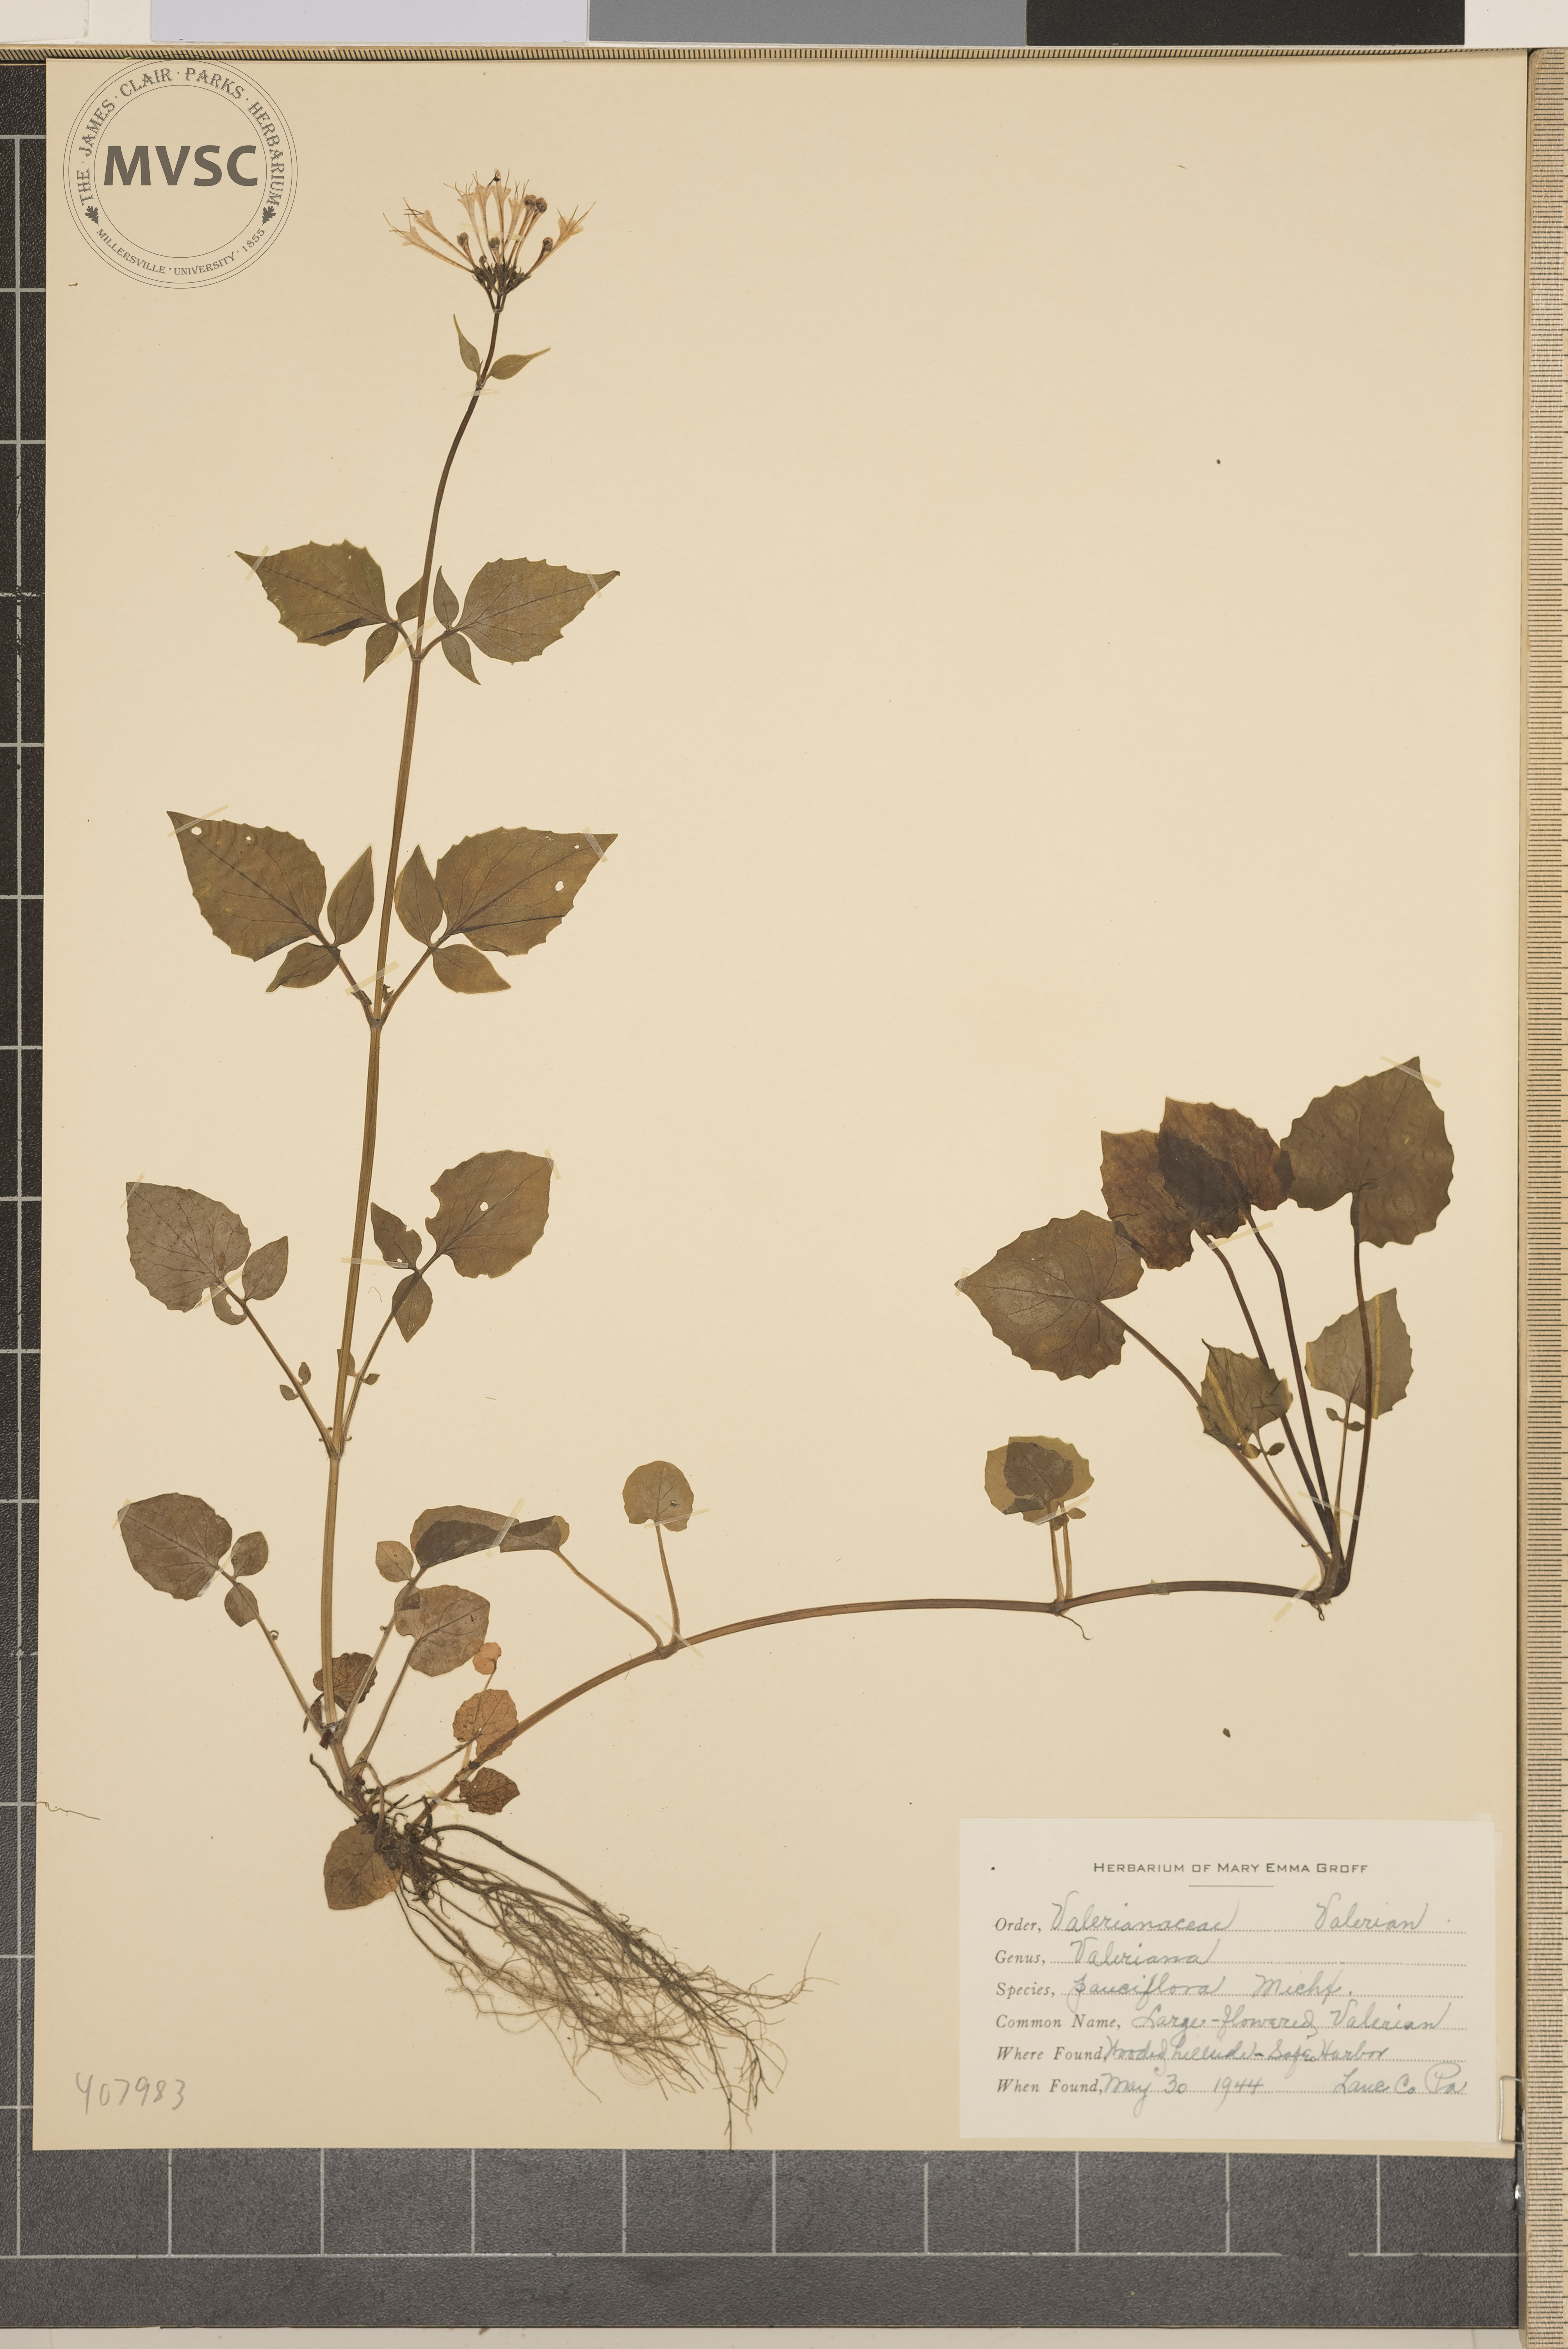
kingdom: Plantae
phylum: Tracheophyta
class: Magnoliopsida
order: Dipsacales
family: Caprifoliaceae
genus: Valeriana
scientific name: Valeriana pauciflora
